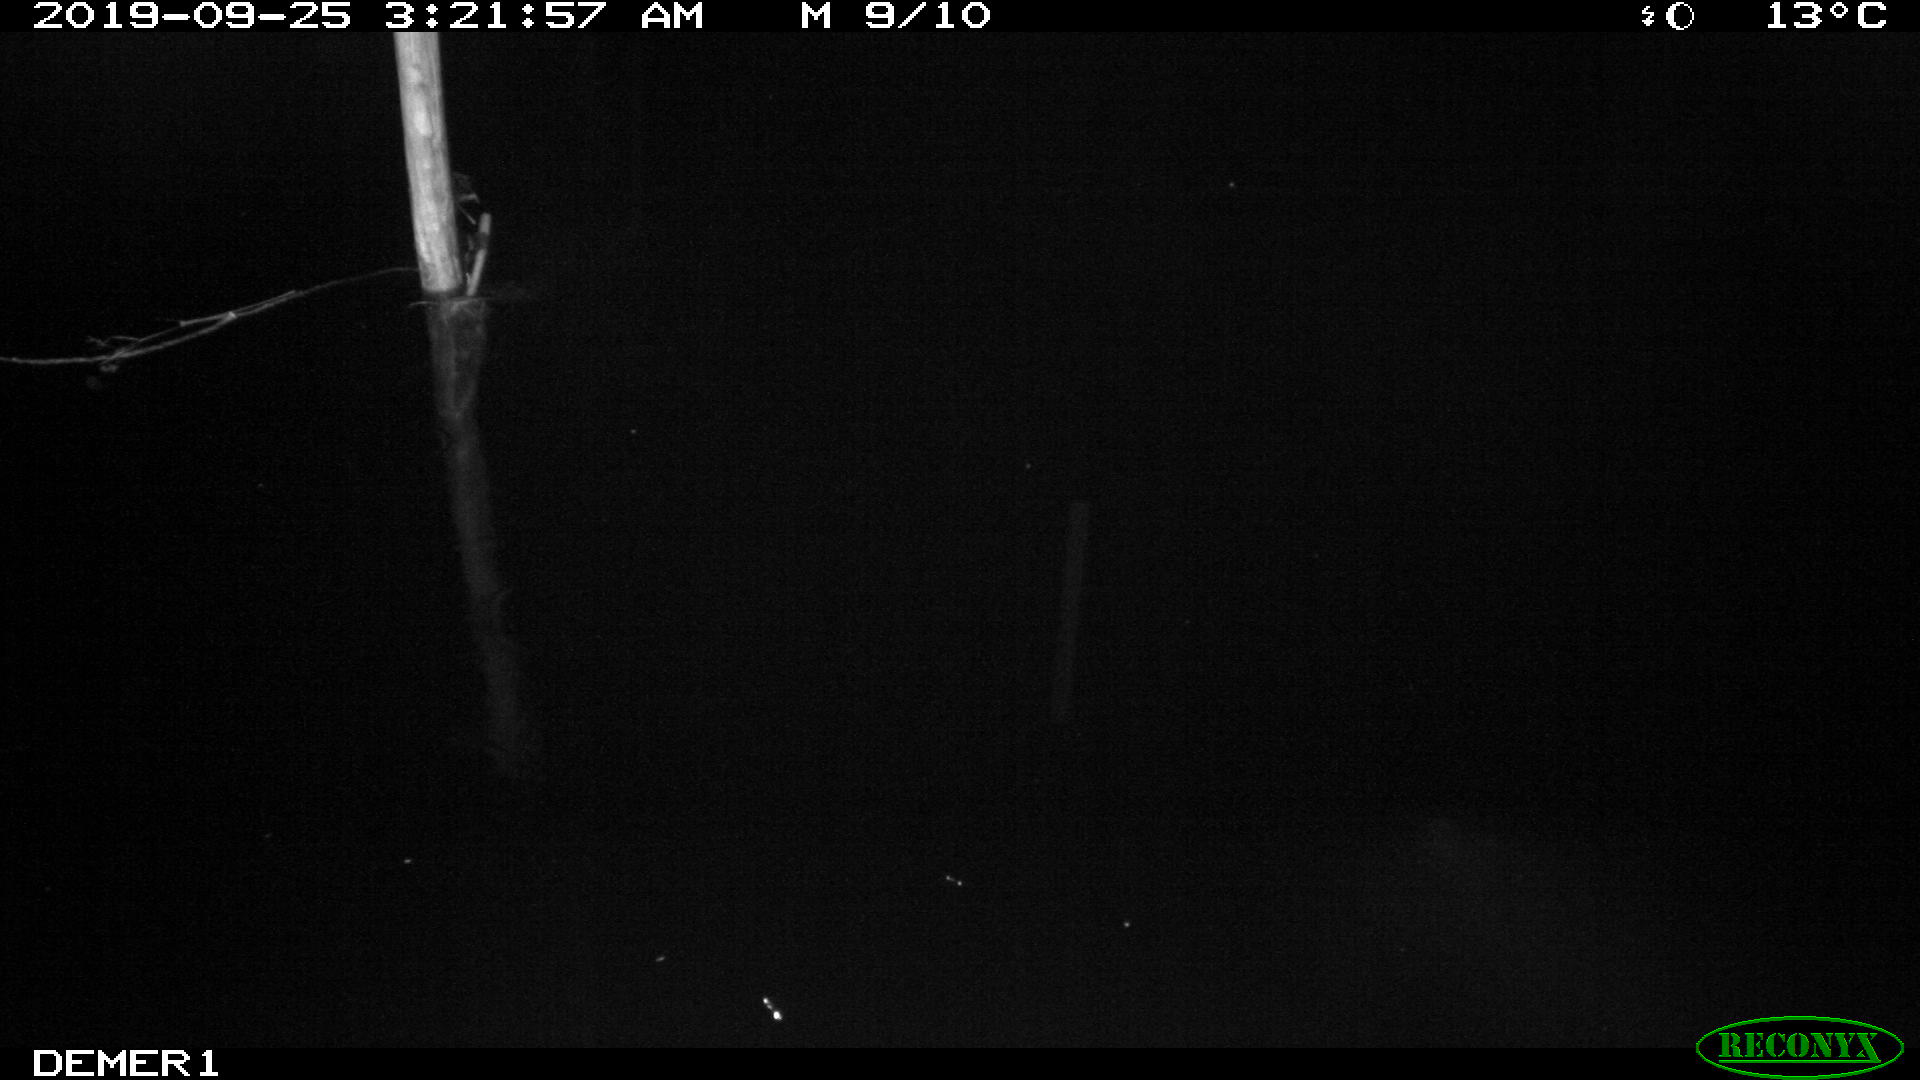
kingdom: Animalia
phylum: Chordata
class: Aves
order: Anseriformes
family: Anatidae
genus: Anas
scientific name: Anas platyrhynchos
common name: Mallard
